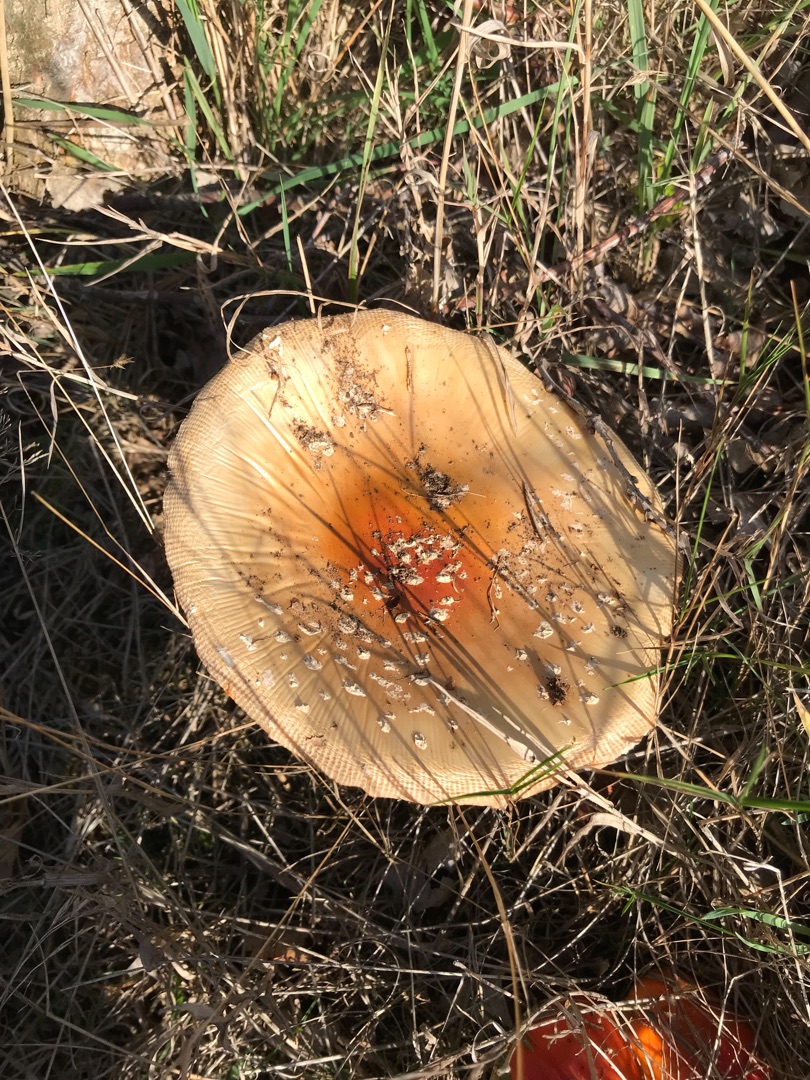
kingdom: Fungi
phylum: Basidiomycota
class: Agaricomycetes
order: Agaricales
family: Amanitaceae
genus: Amanita
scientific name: Amanita muscaria
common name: Rød fluesvamp
